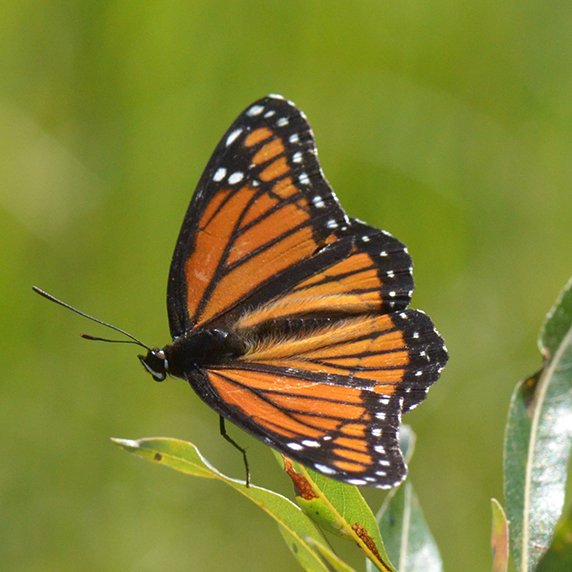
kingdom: Animalia
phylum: Arthropoda
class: Insecta
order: Lepidoptera
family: Nymphalidae
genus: Limenitis
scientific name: Limenitis archippus
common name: Viceroy
